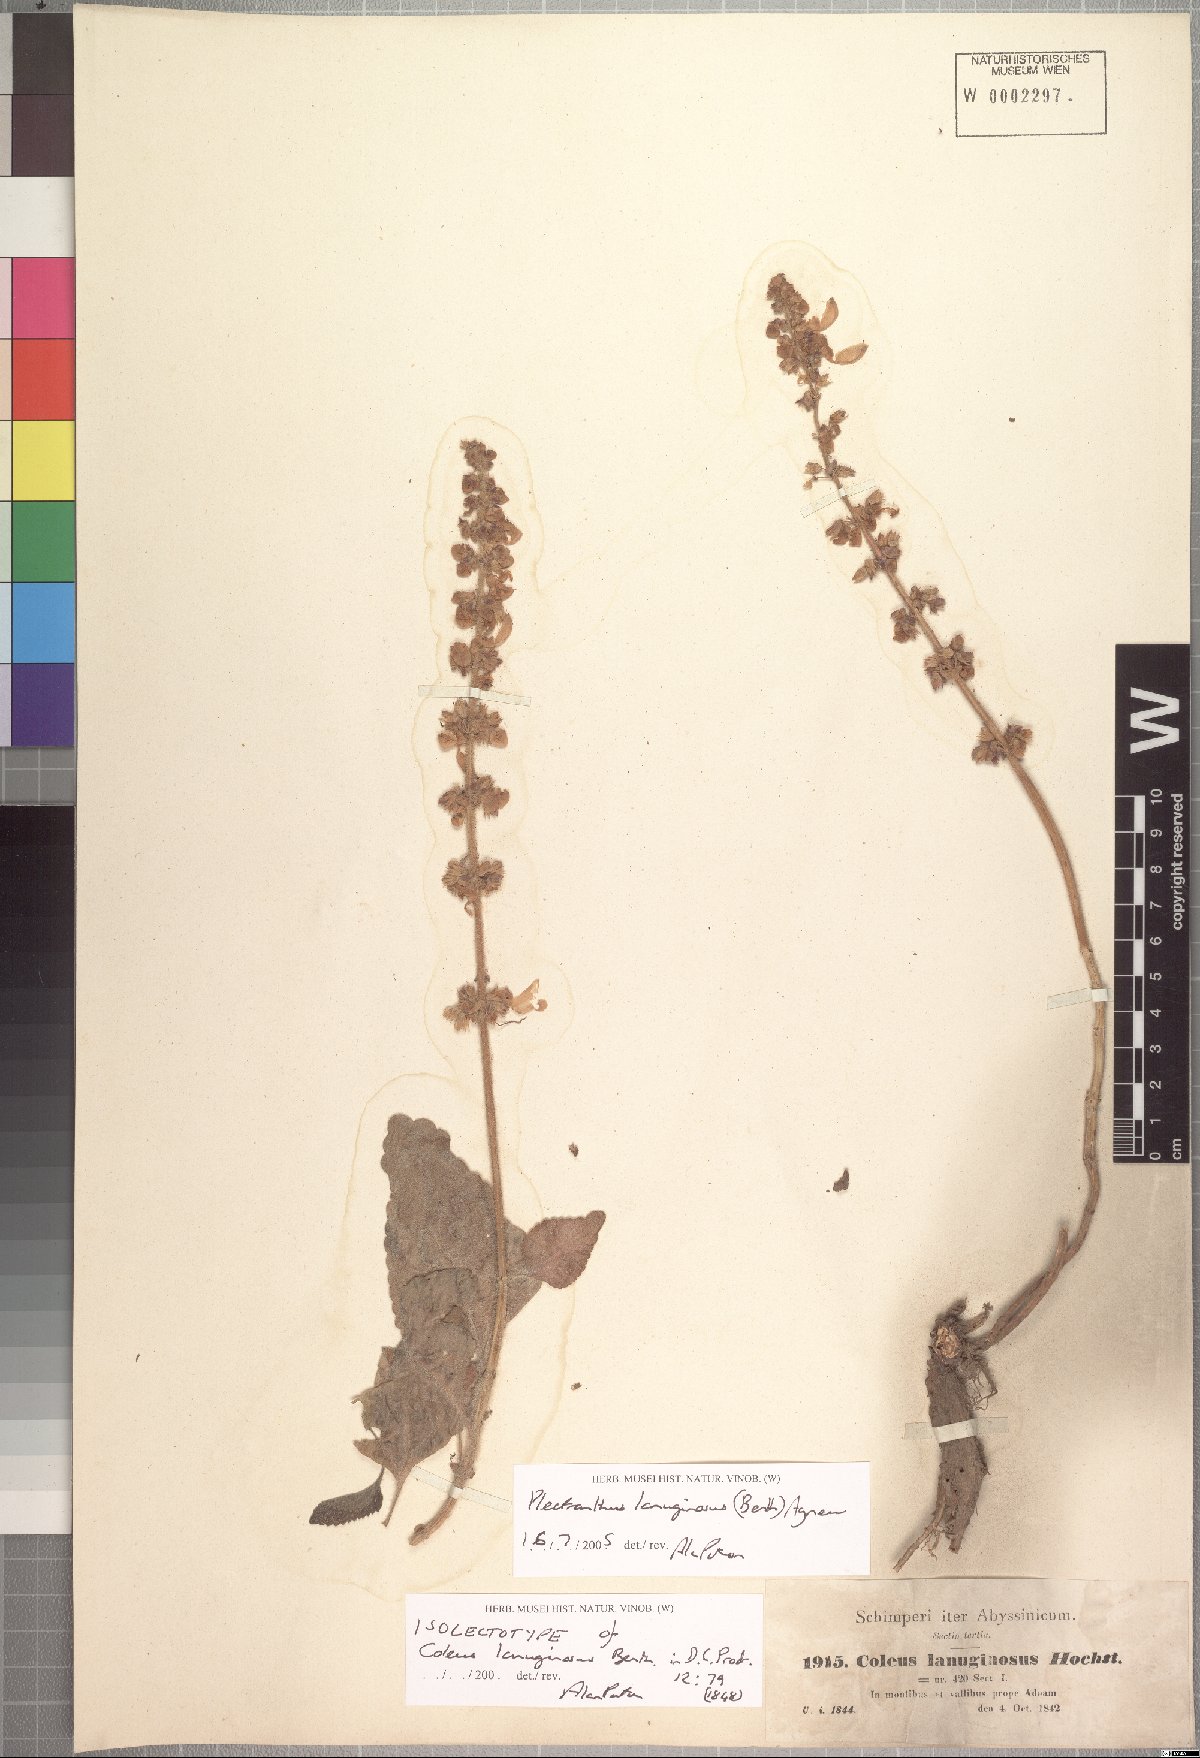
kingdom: Plantae
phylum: Tracheophyta
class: Magnoliopsida
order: Lamiales
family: Lamiaceae
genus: Coleus
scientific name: Coleus lanuginosus
